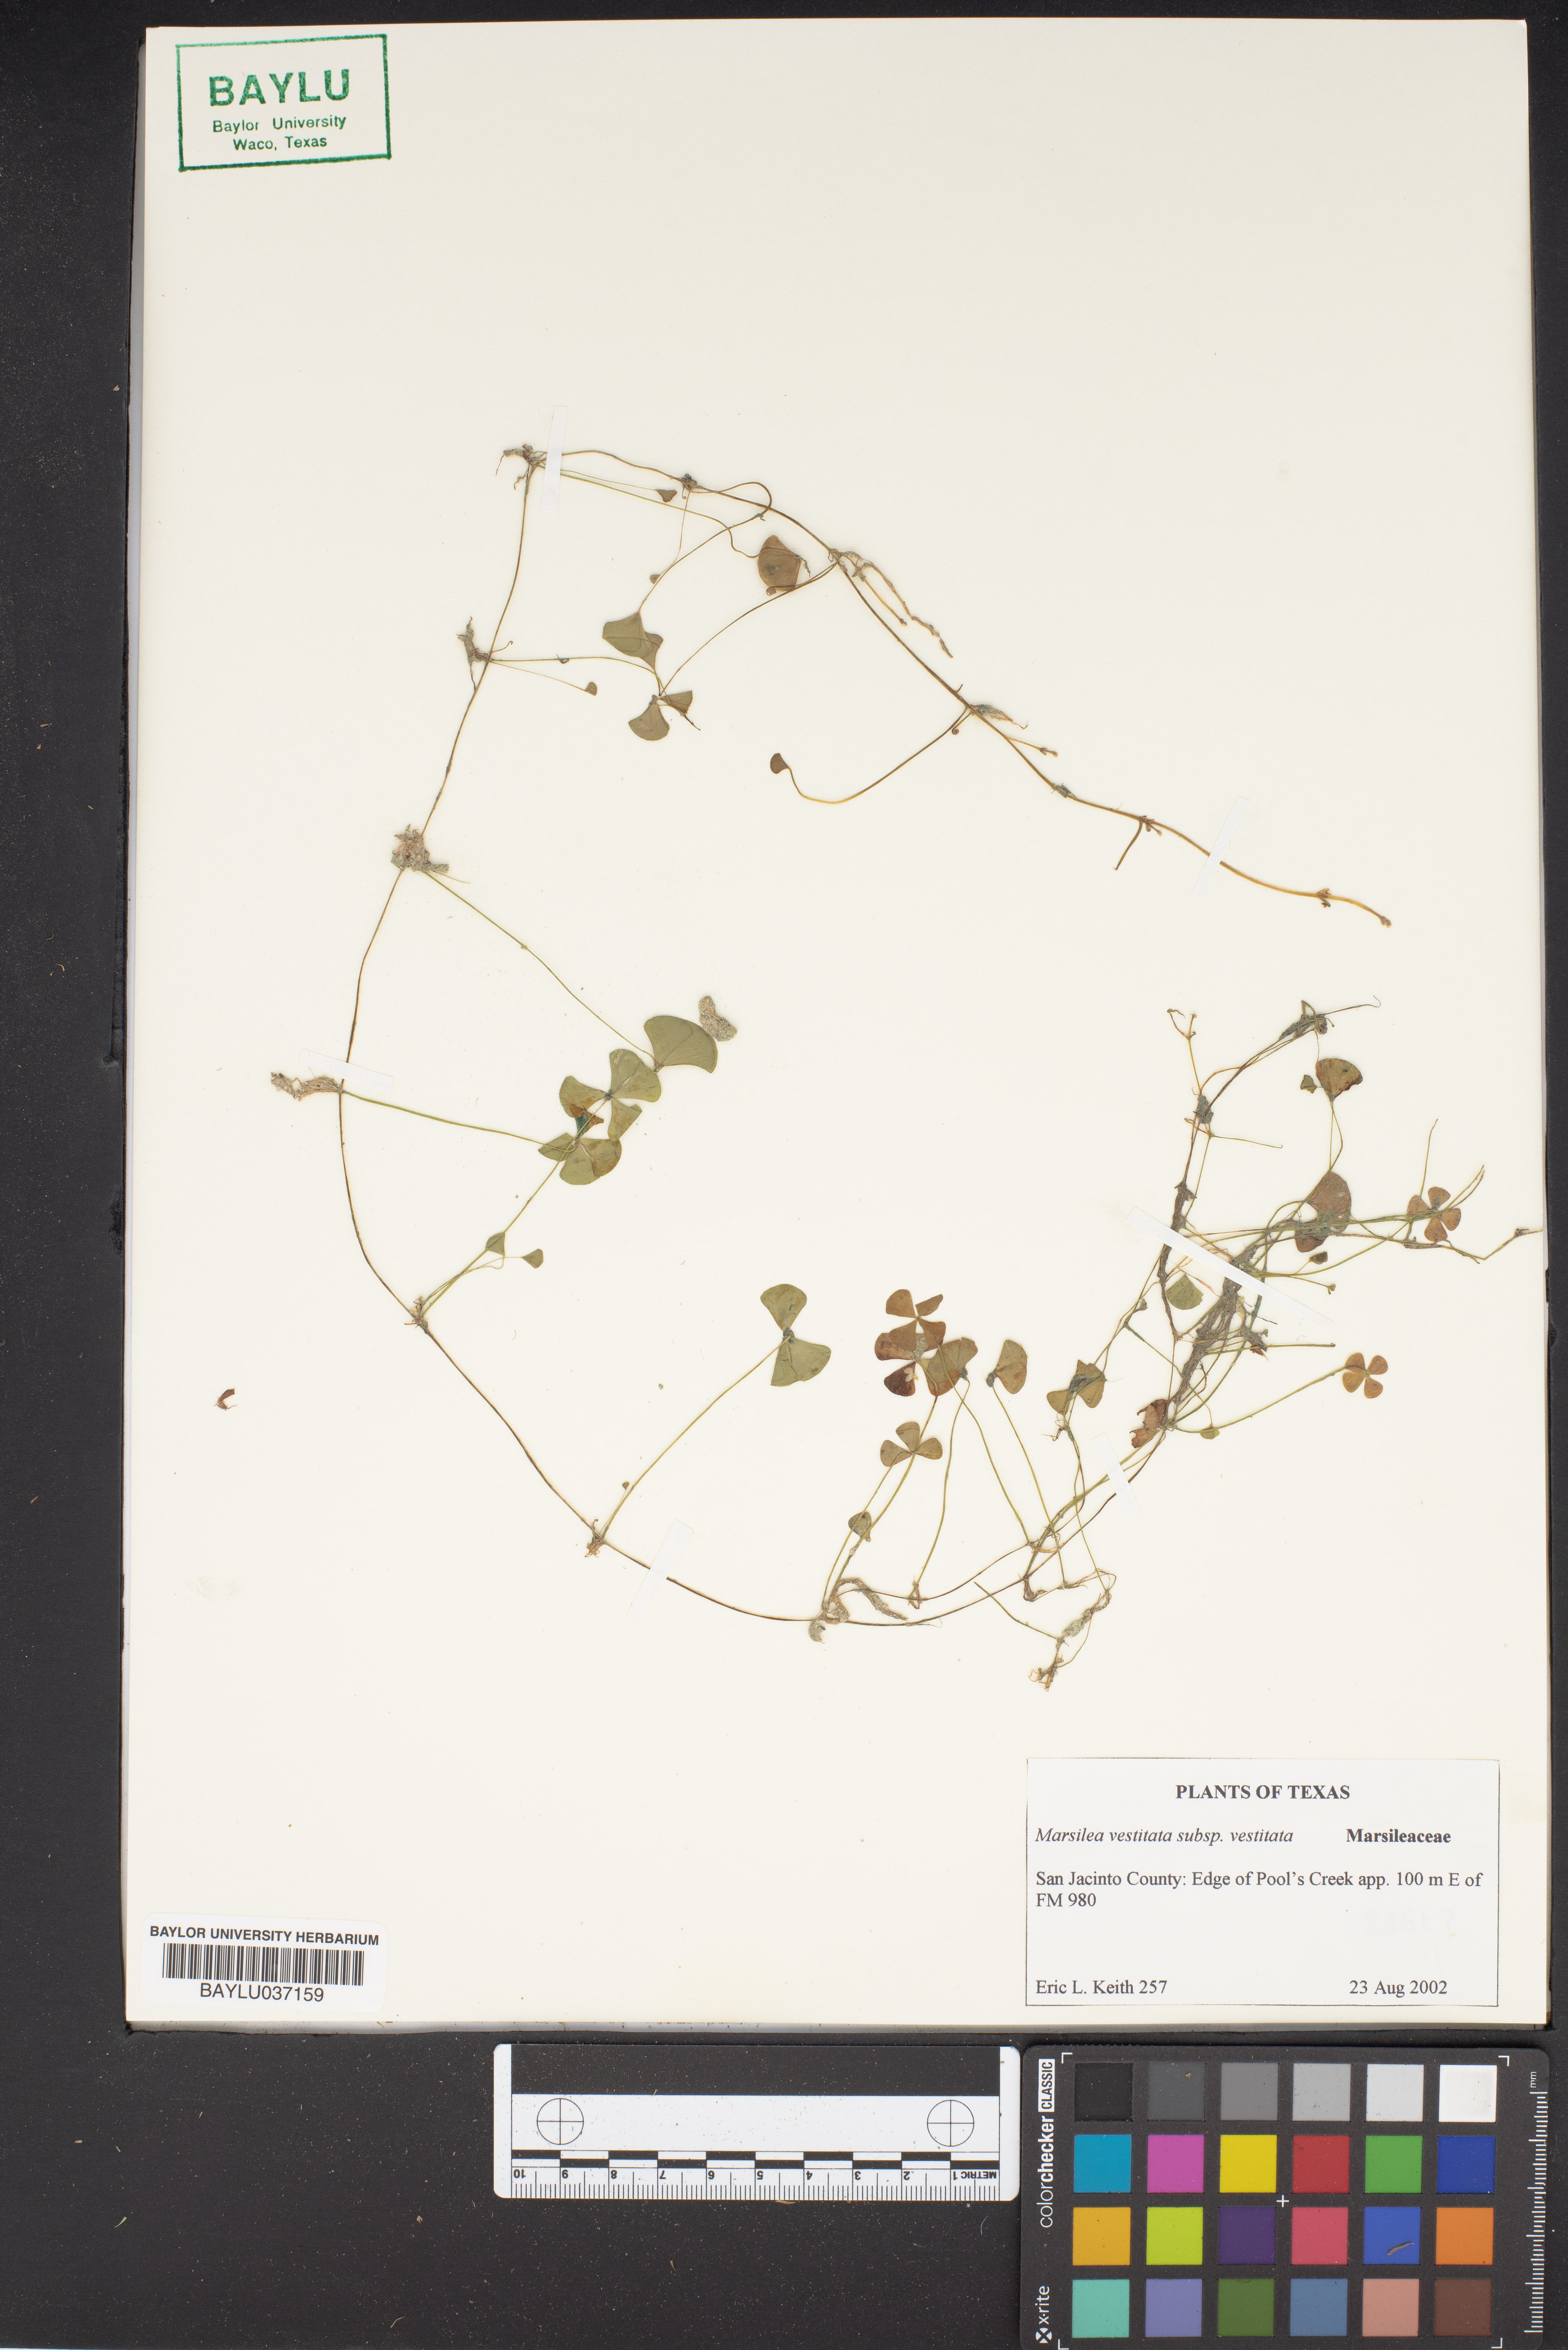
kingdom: Plantae
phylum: Tracheophyta
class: Polypodiopsida
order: Salviniales
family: Marsileaceae
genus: Marsilea
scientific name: Marsilea vestita
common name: Hooked-pepperwort
